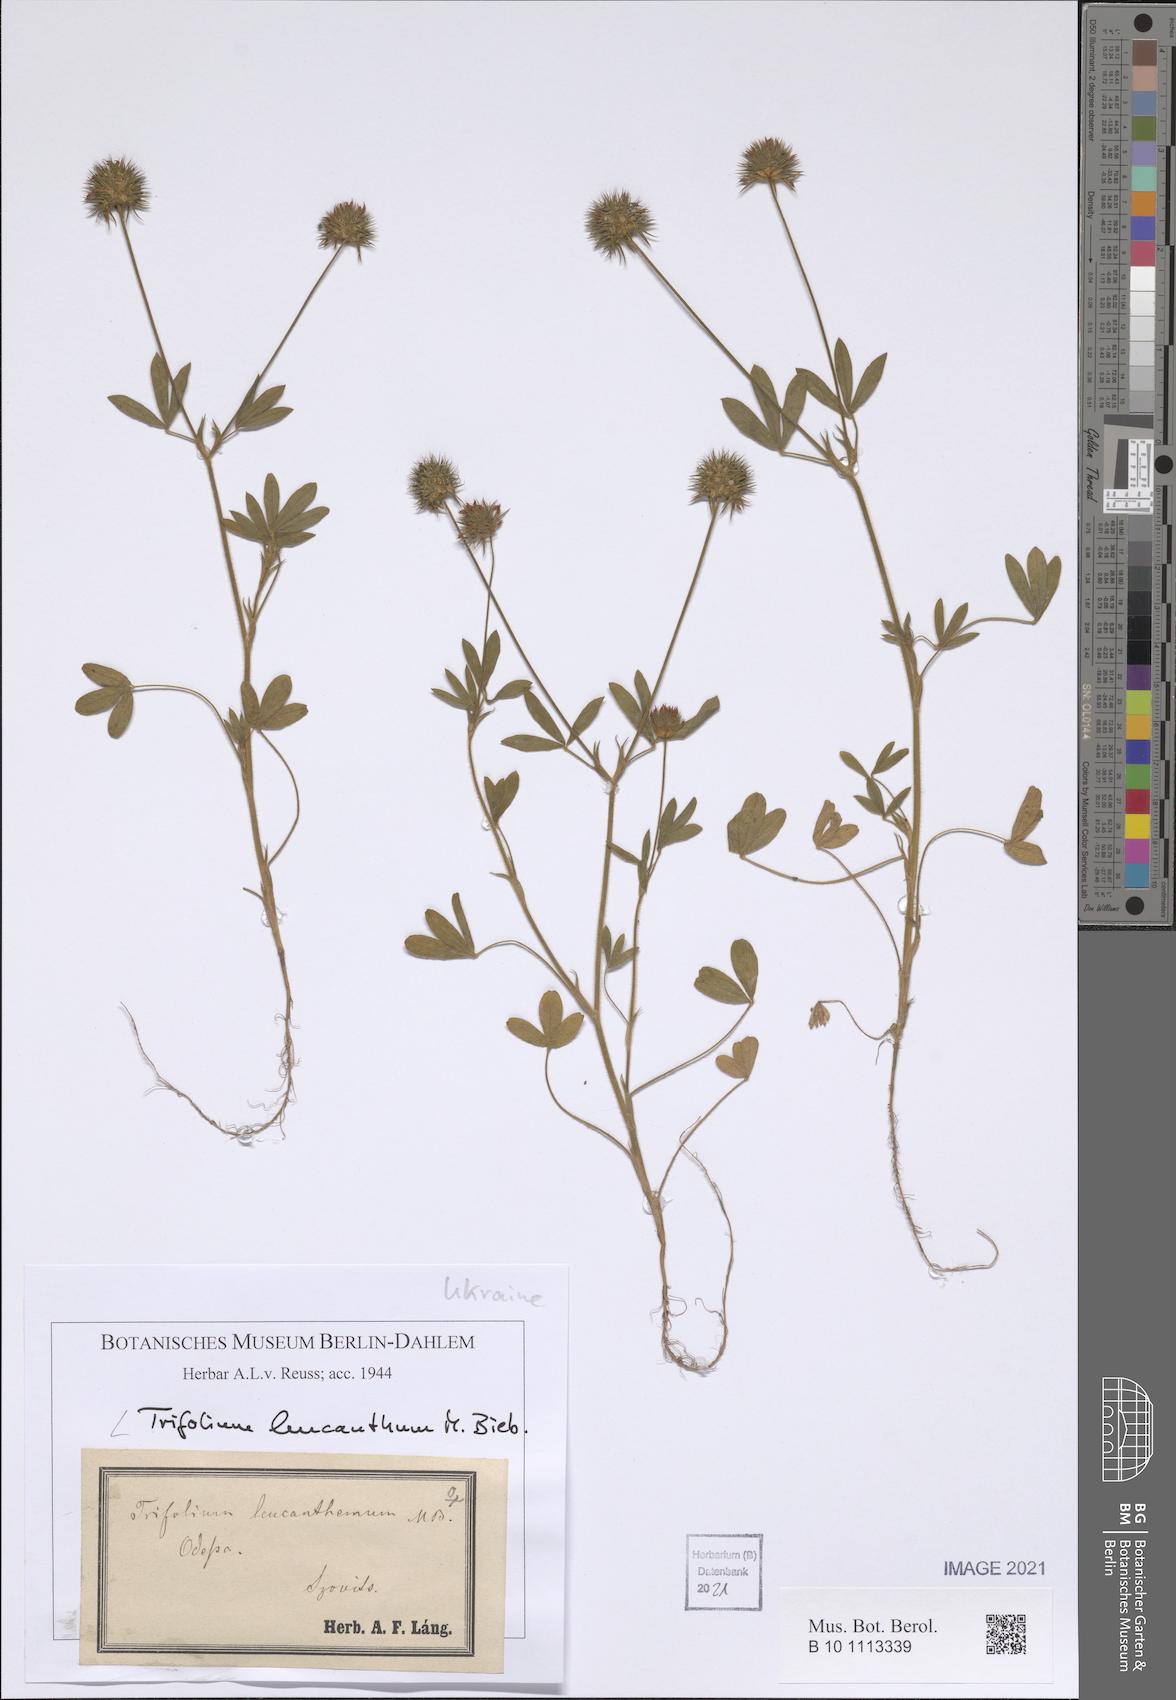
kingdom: Plantae
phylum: Tracheophyta
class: Magnoliopsida
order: Fabales
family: Fabaceae
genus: Trifolium
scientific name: Trifolium leucanthum
